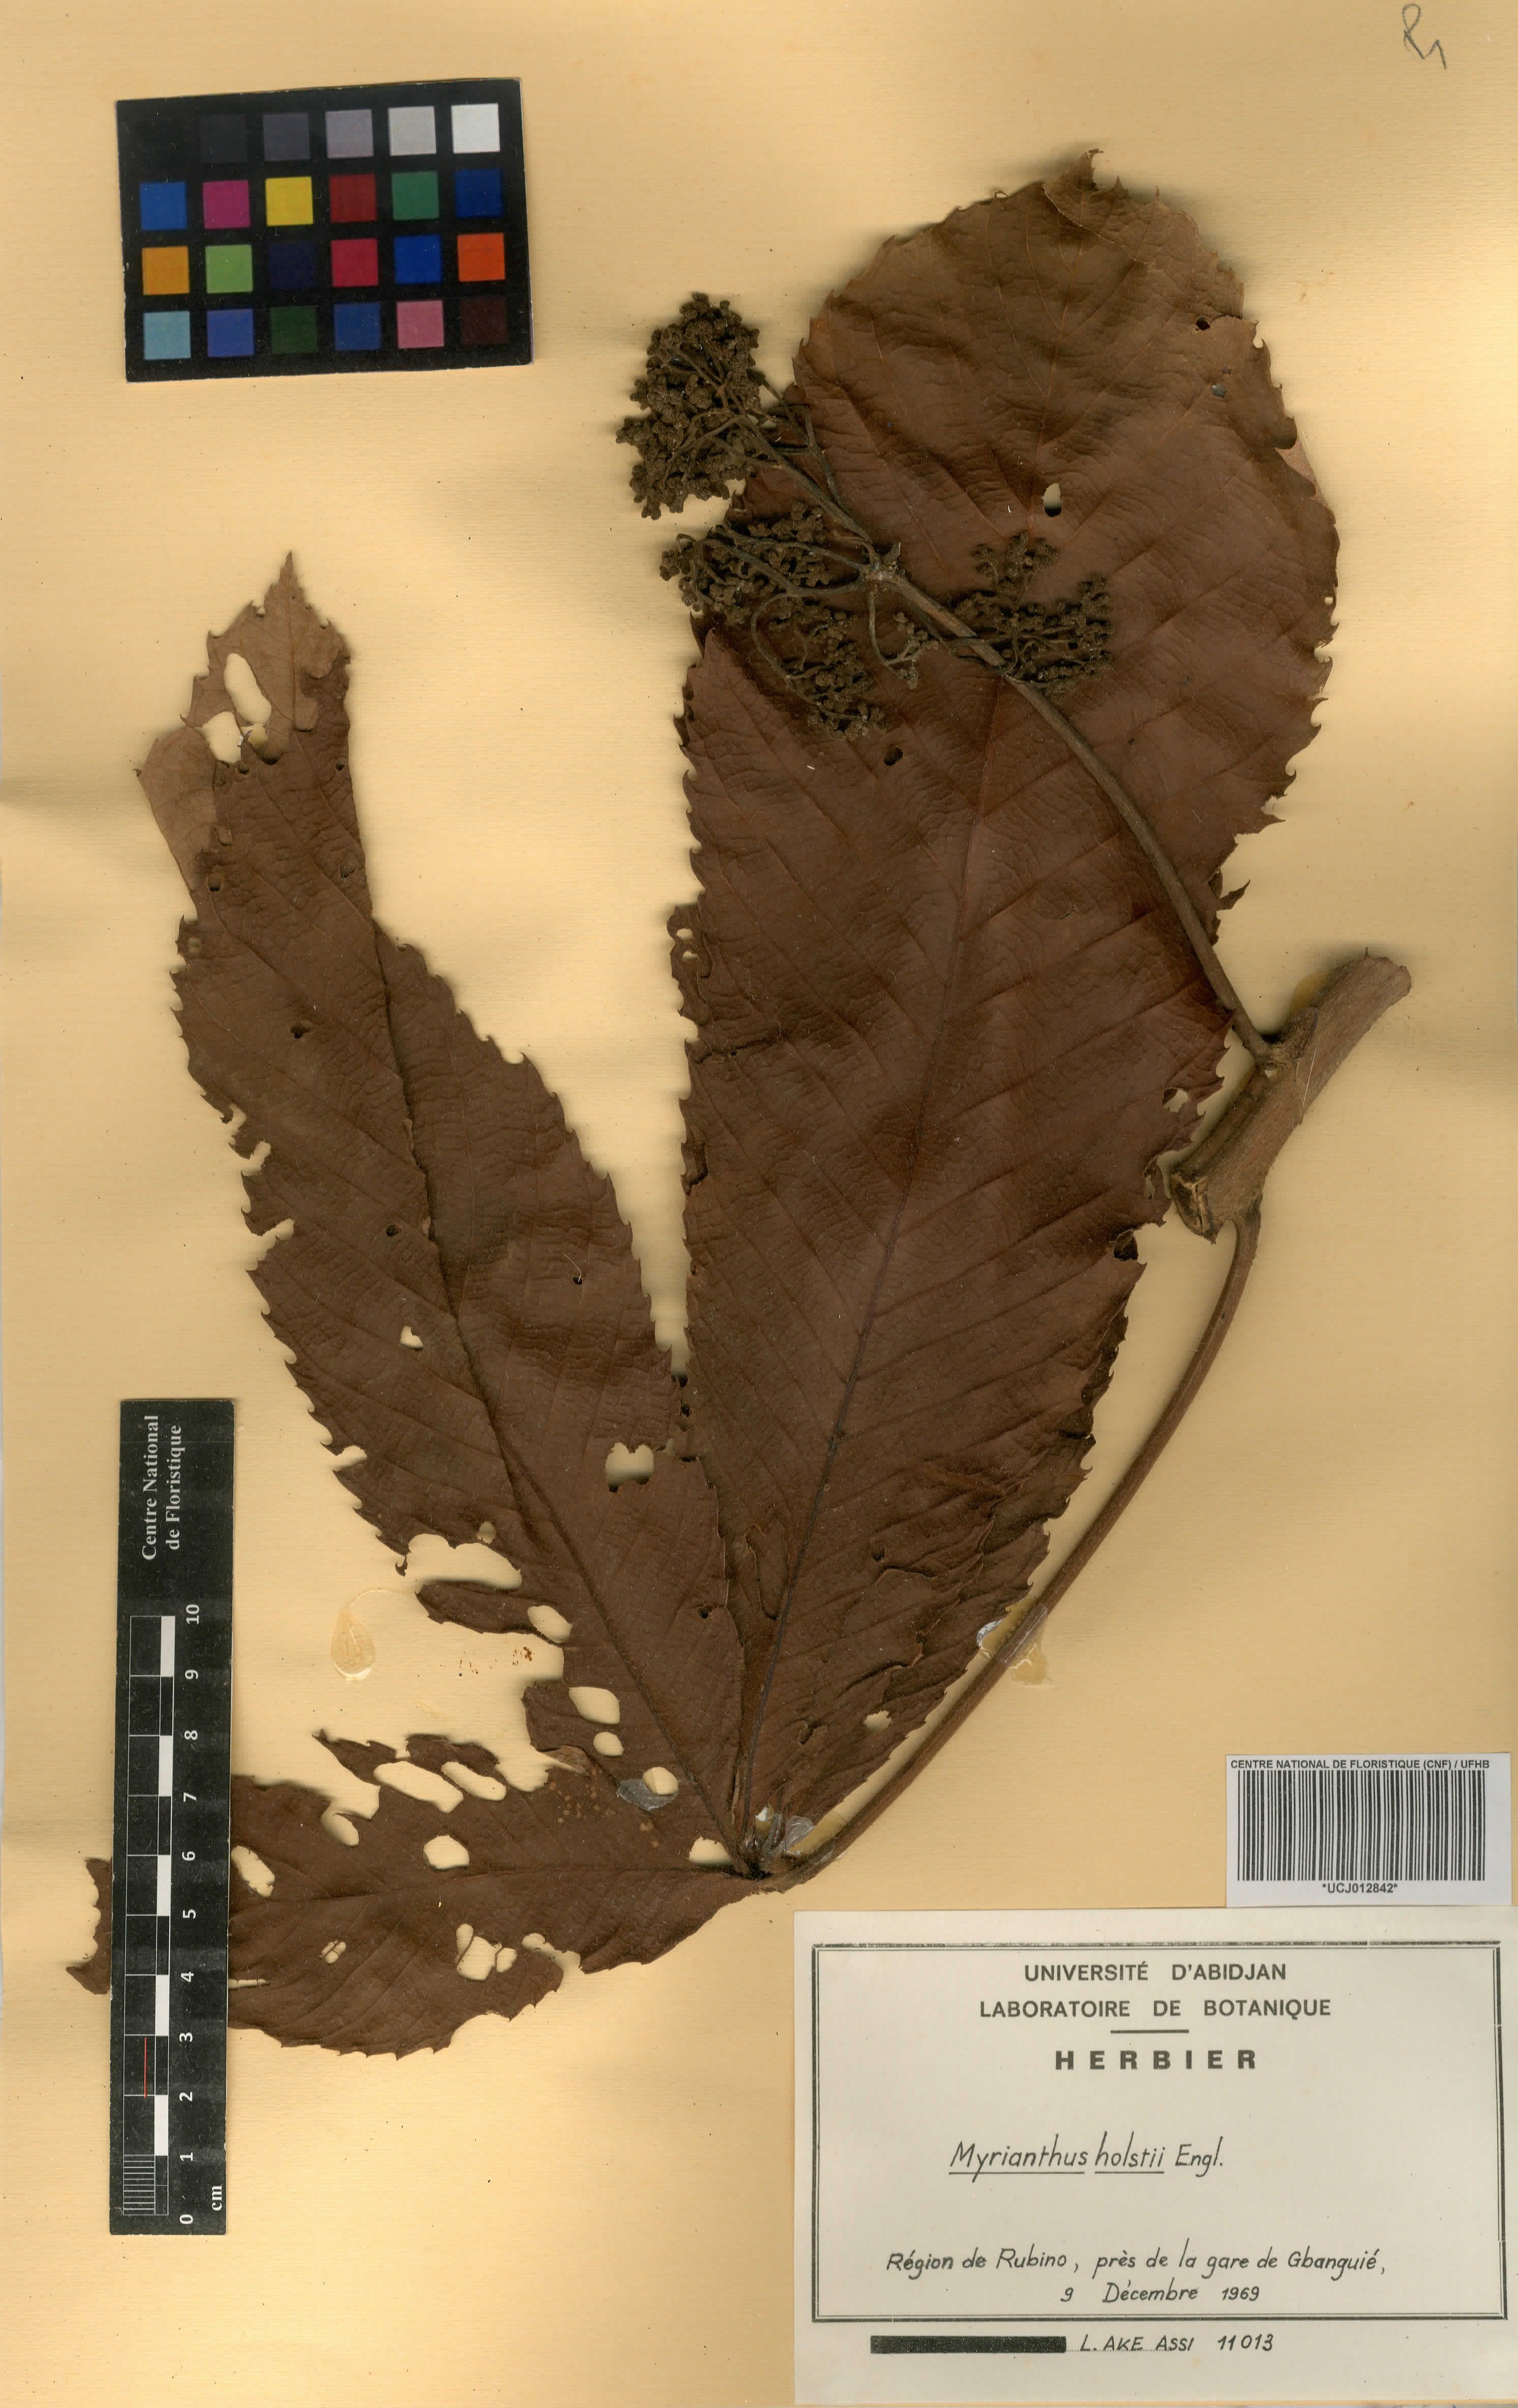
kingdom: Plantae
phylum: Tracheophyta
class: Magnoliopsida
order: Rosales
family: Urticaceae
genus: Myrianthus
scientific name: Myrianthus holstii
